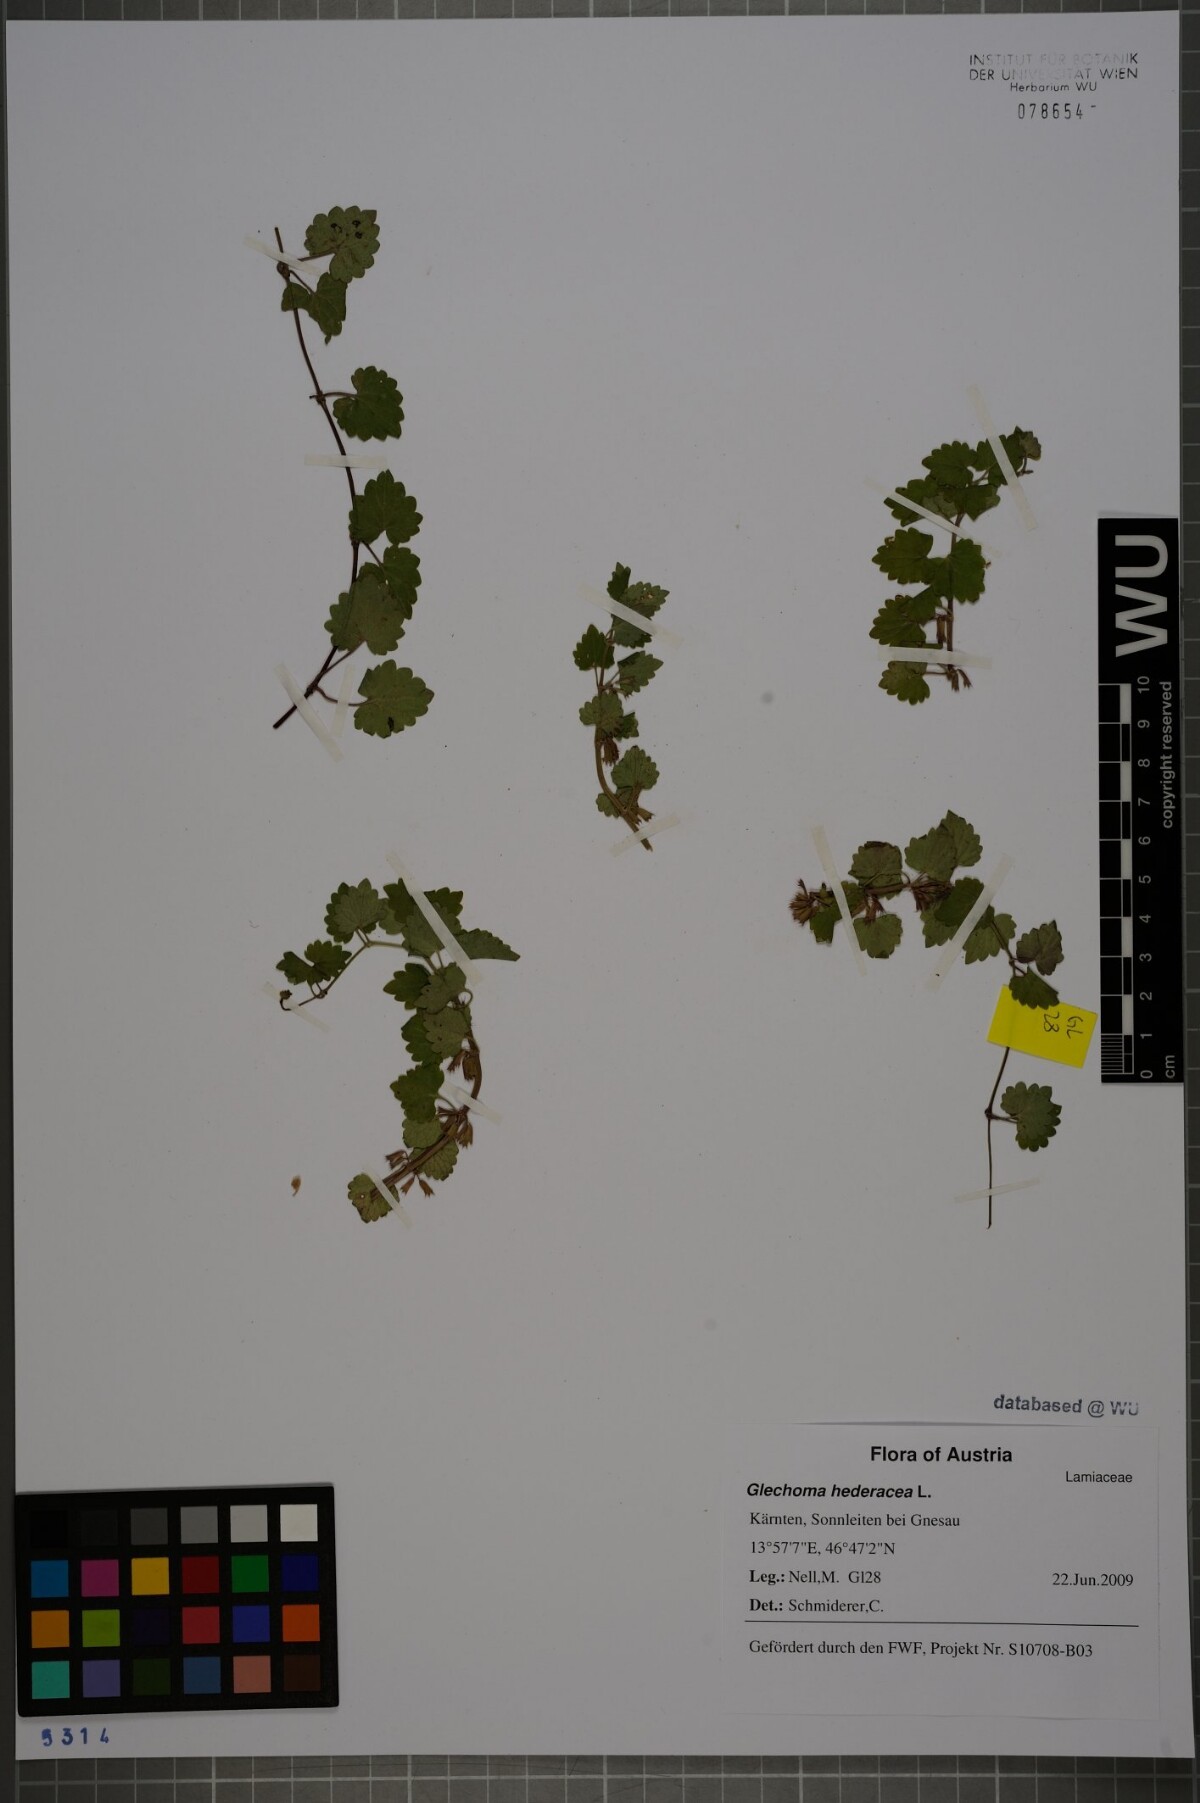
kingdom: Plantae
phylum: Tracheophyta
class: Magnoliopsida
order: Lamiales
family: Lamiaceae
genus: Glechoma
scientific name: Glechoma hederacea
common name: Ground ivy
